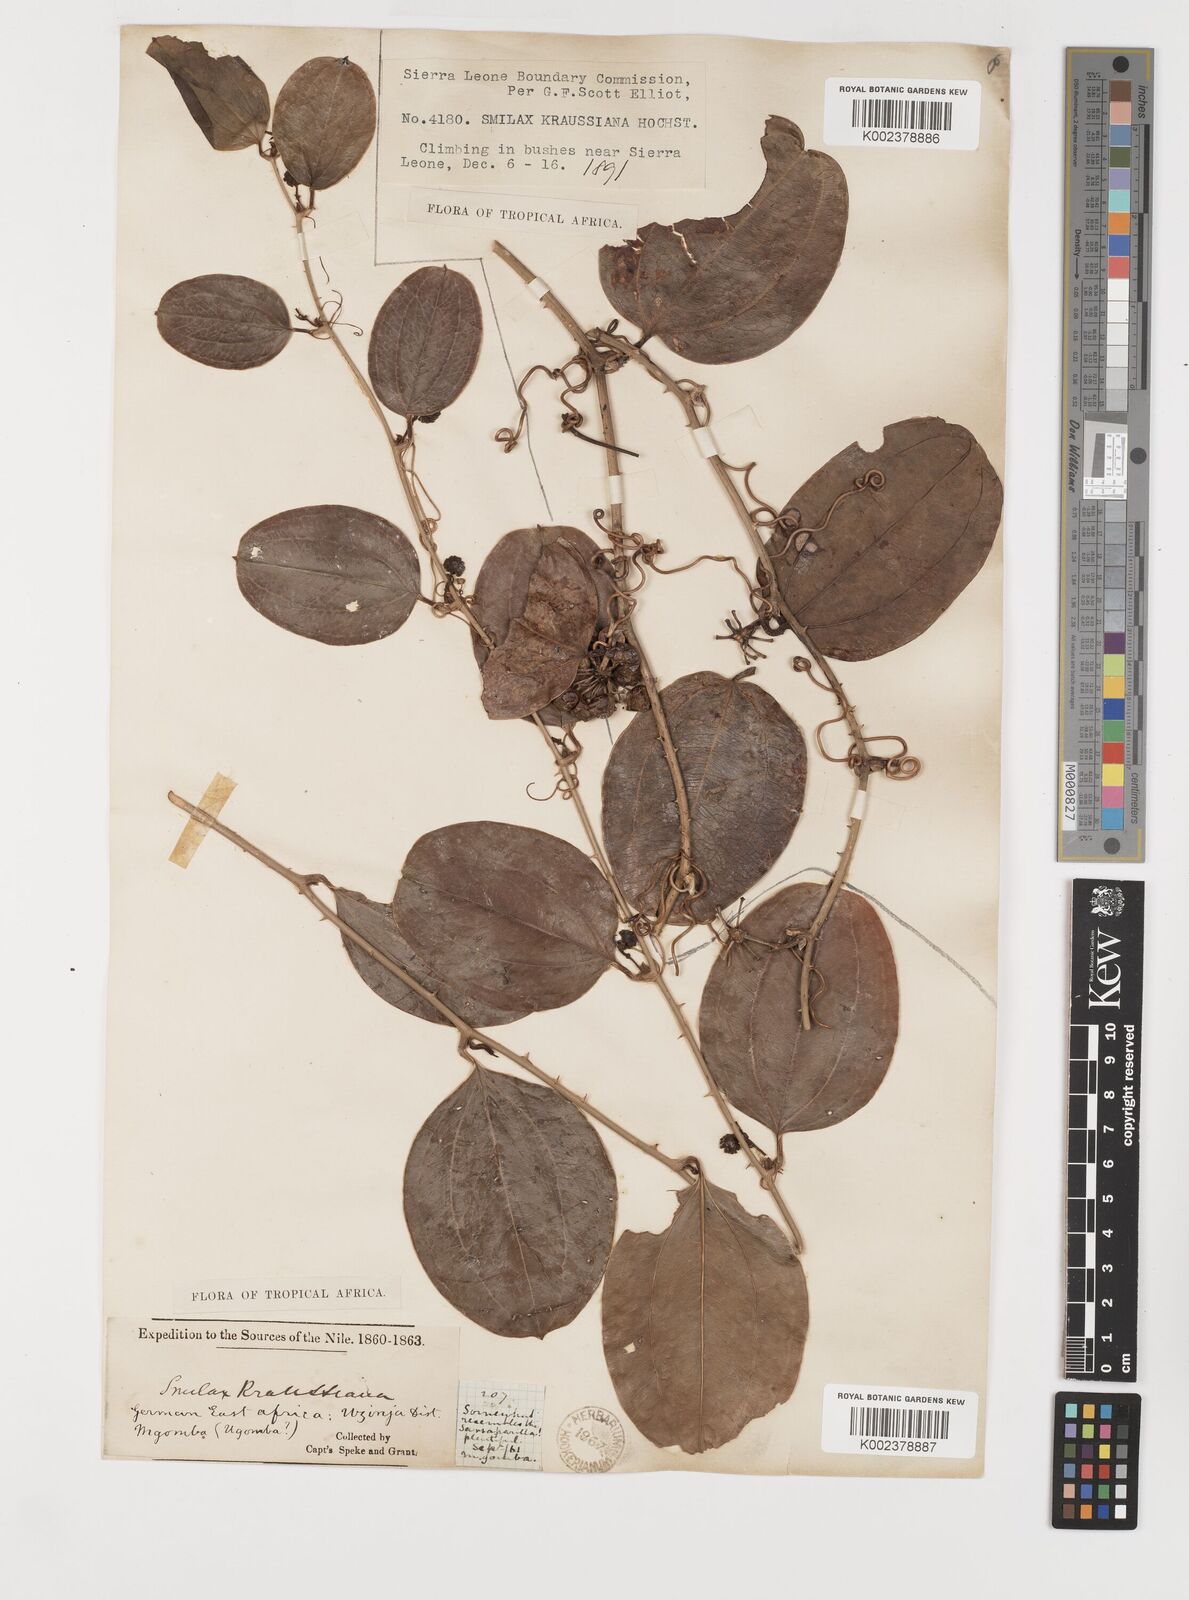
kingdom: Plantae
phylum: Tracheophyta
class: Liliopsida
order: Liliales
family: Smilacaceae
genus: Smilax
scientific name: Smilax anceps
